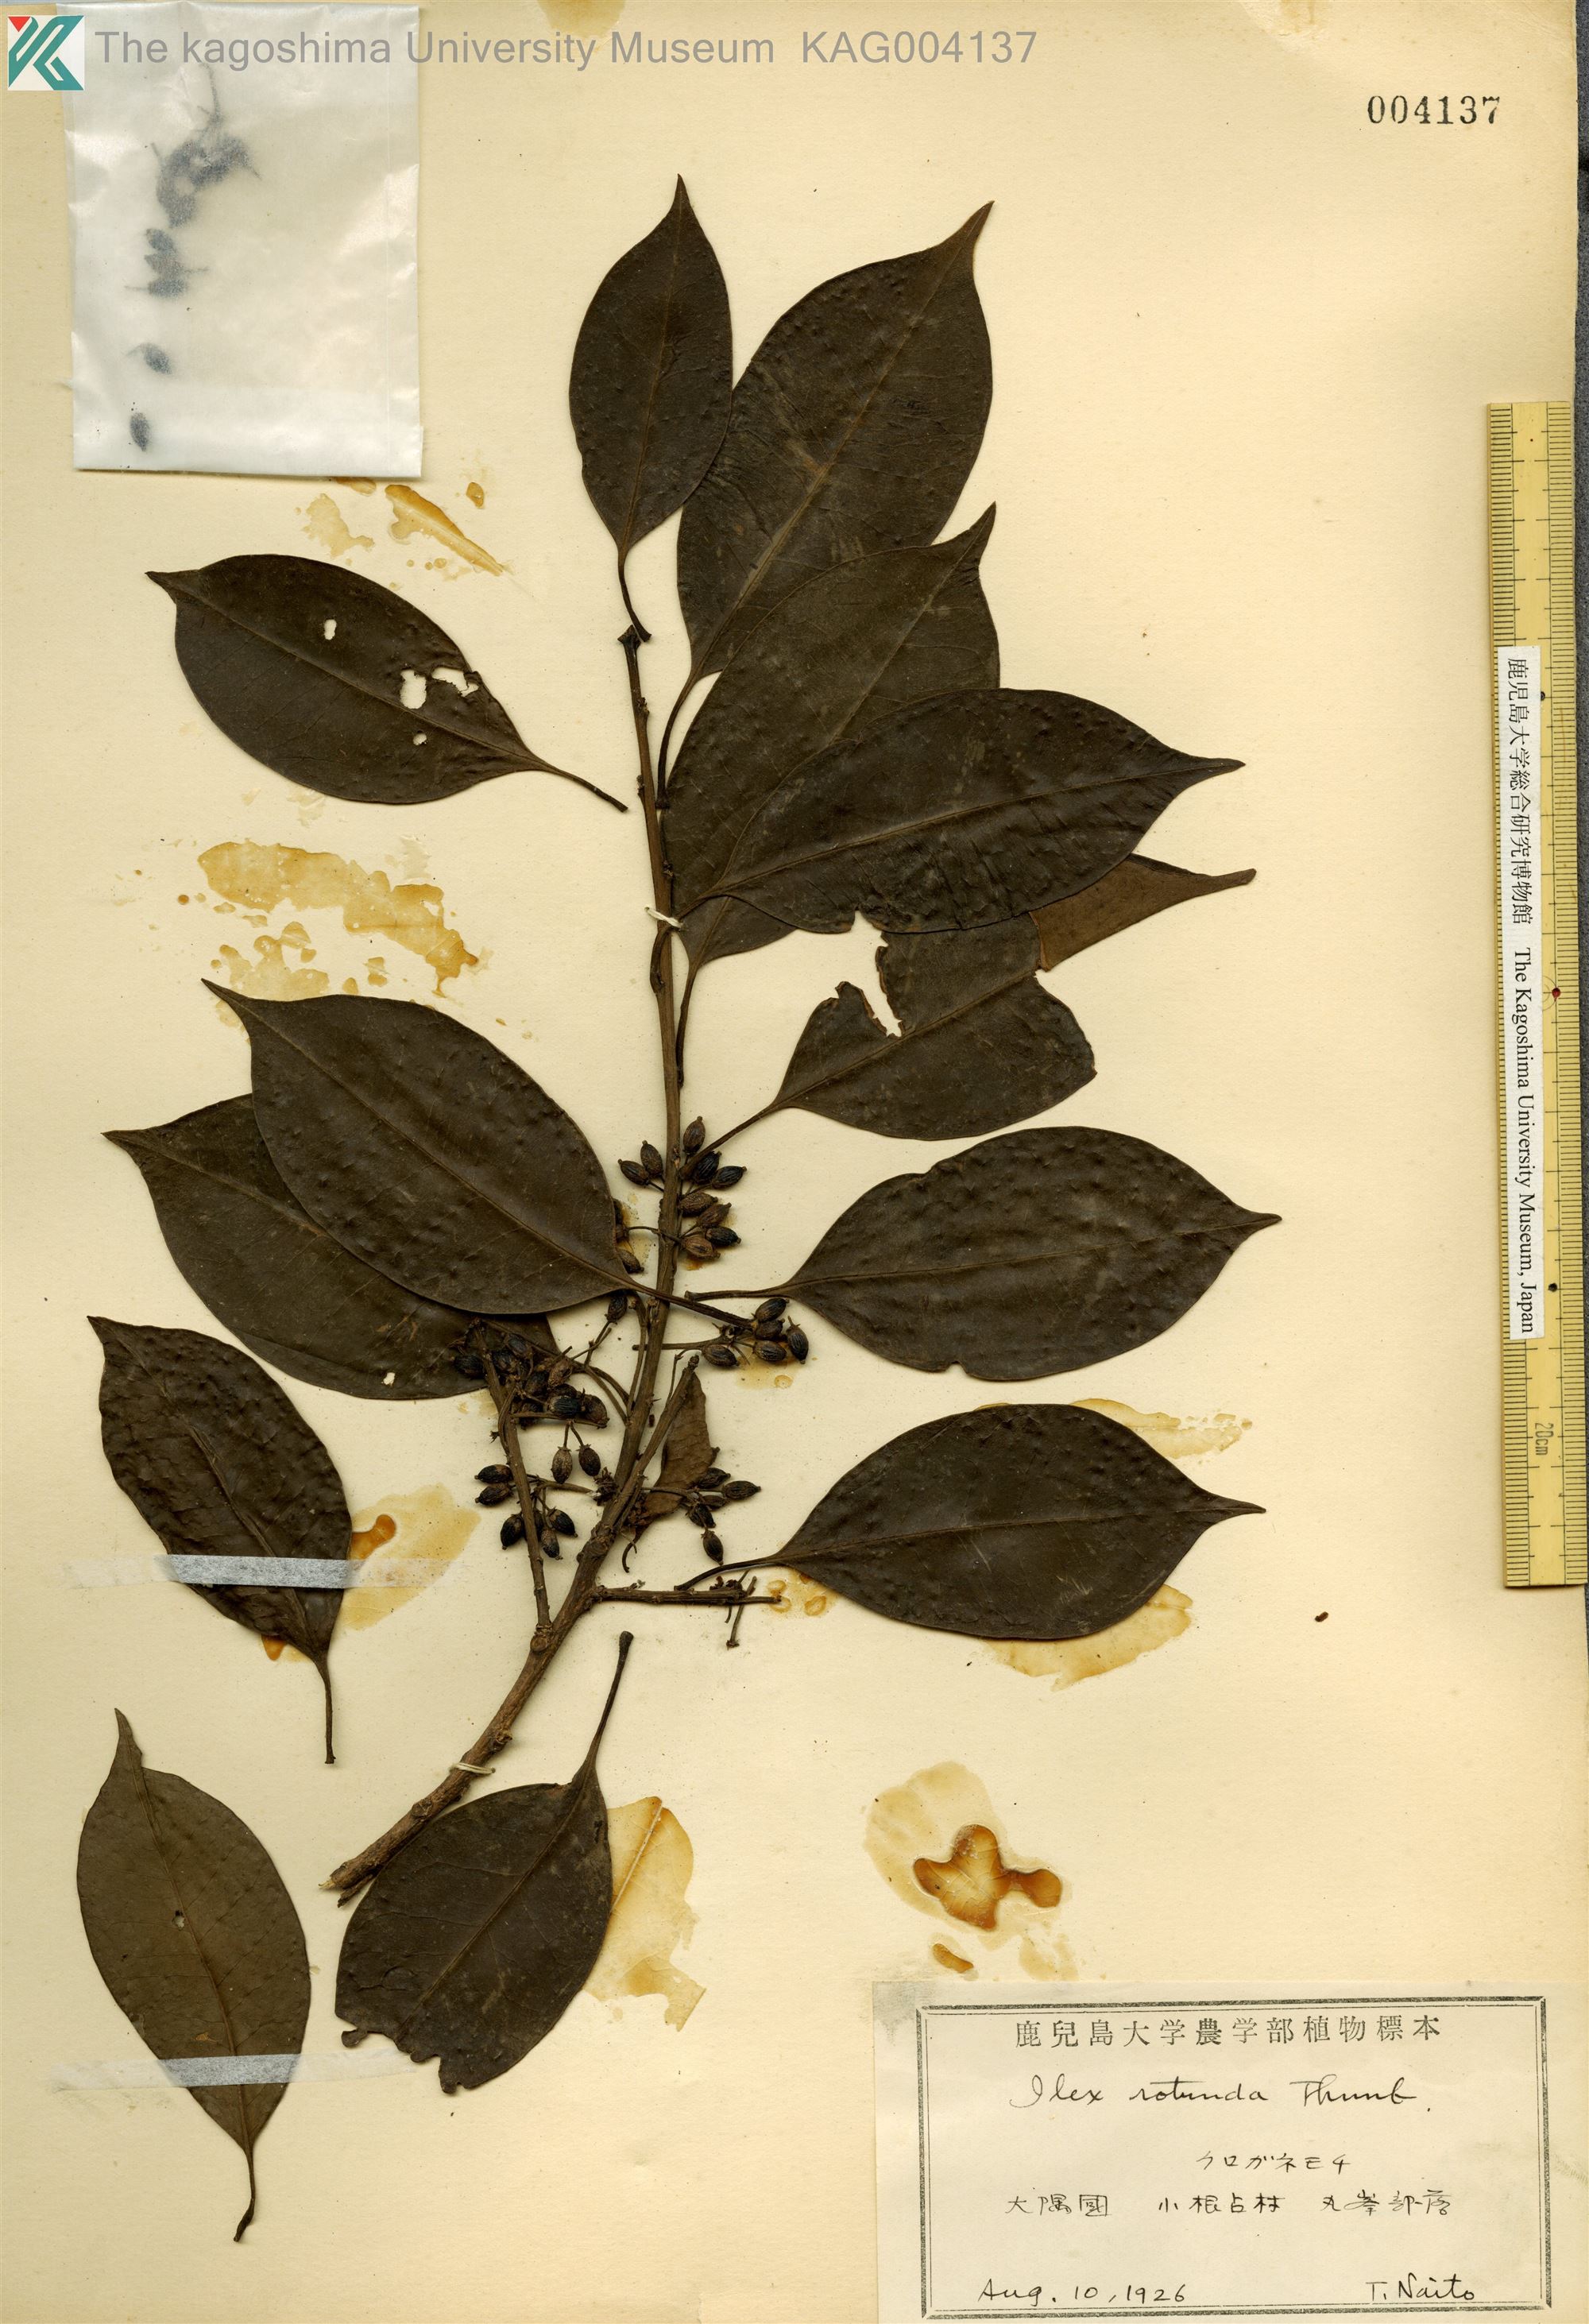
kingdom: Plantae
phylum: Tracheophyta
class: Magnoliopsida
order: Aquifoliales
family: Aquifoliaceae
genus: Ilex
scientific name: Ilex rotunda
